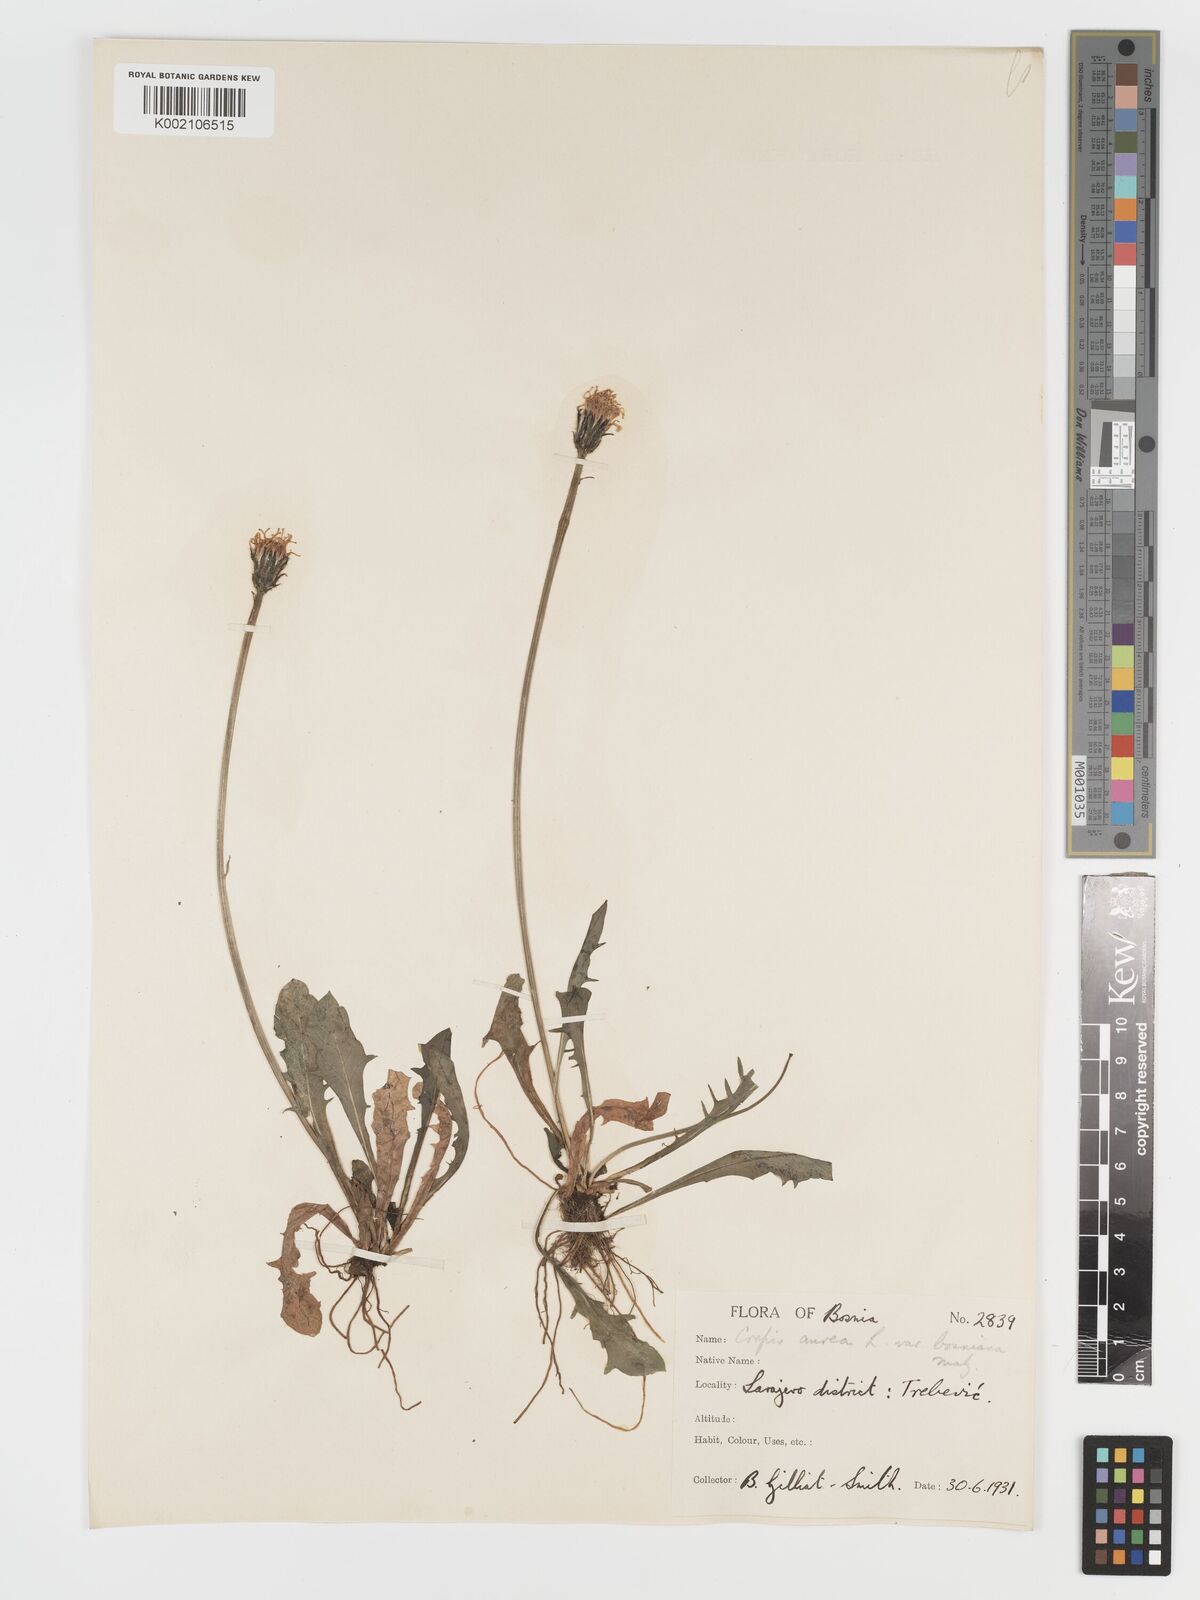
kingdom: Plantae
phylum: Tracheophyta
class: Magnoliopsida
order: Asterales
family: Asteraceae
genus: Crepis
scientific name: Crepis aurea
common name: Golden hawk's-beard
